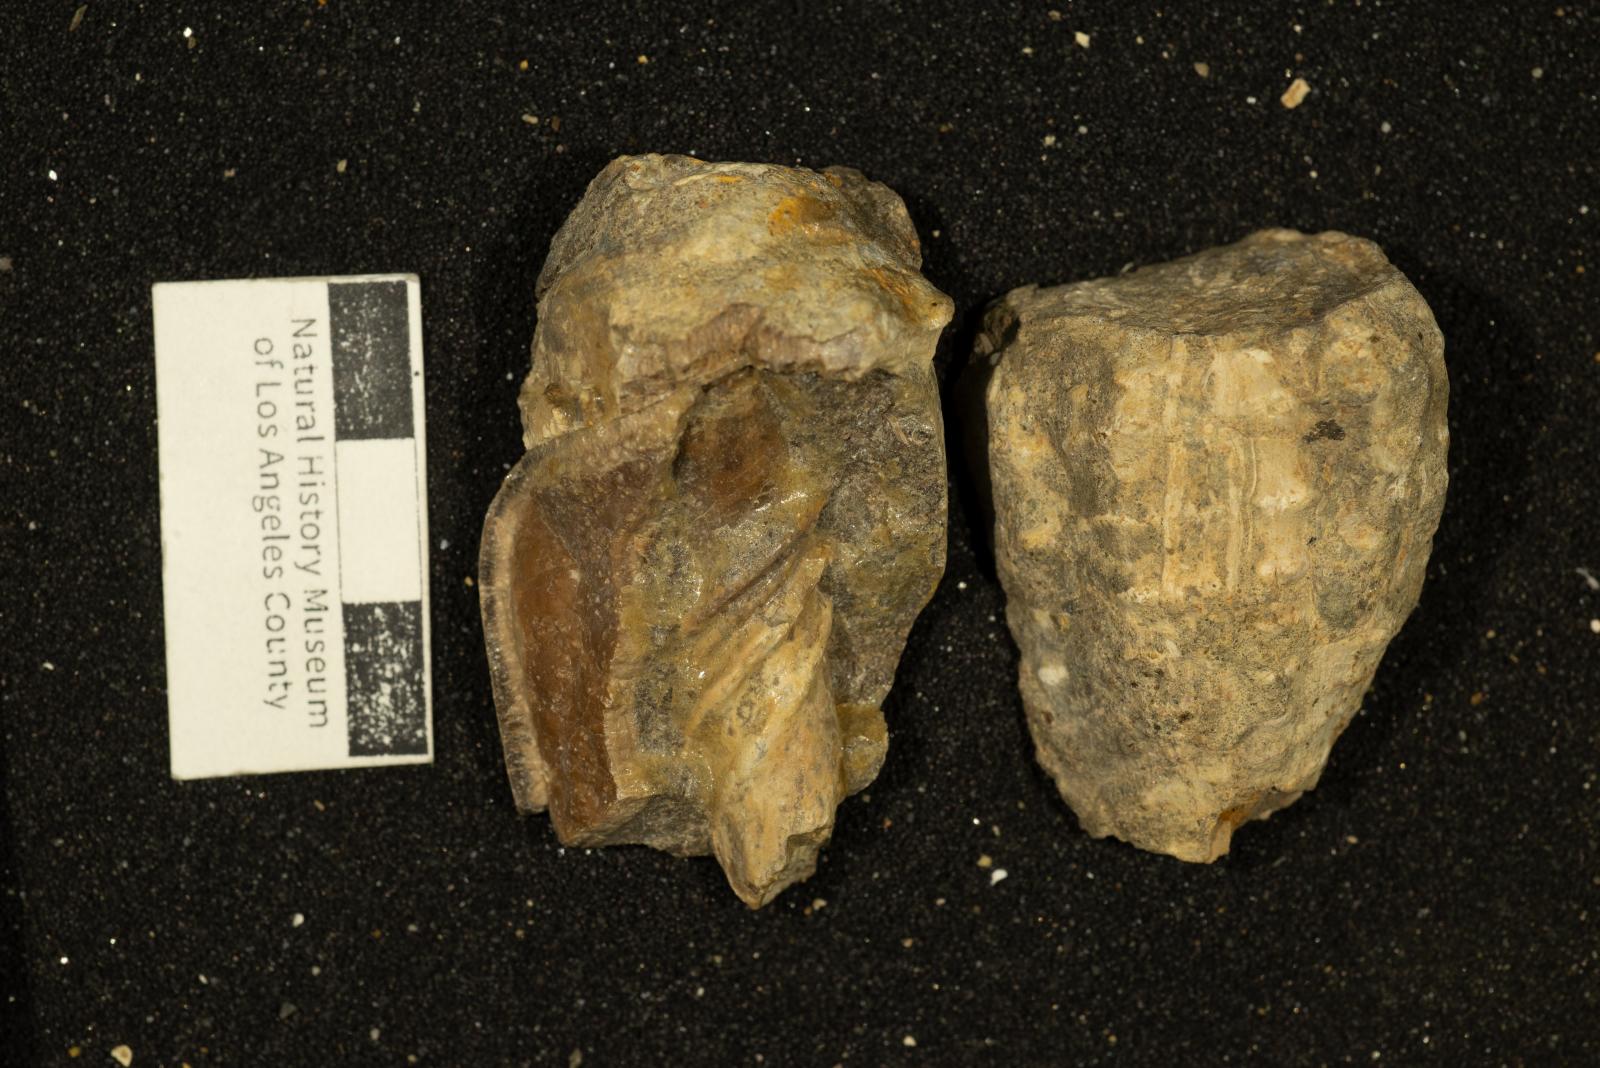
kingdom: Animalia
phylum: Mollusca
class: Gastropoda
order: Neogastropoda
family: Pholidotomidae
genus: Volutoderma
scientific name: Volutoderma santana
